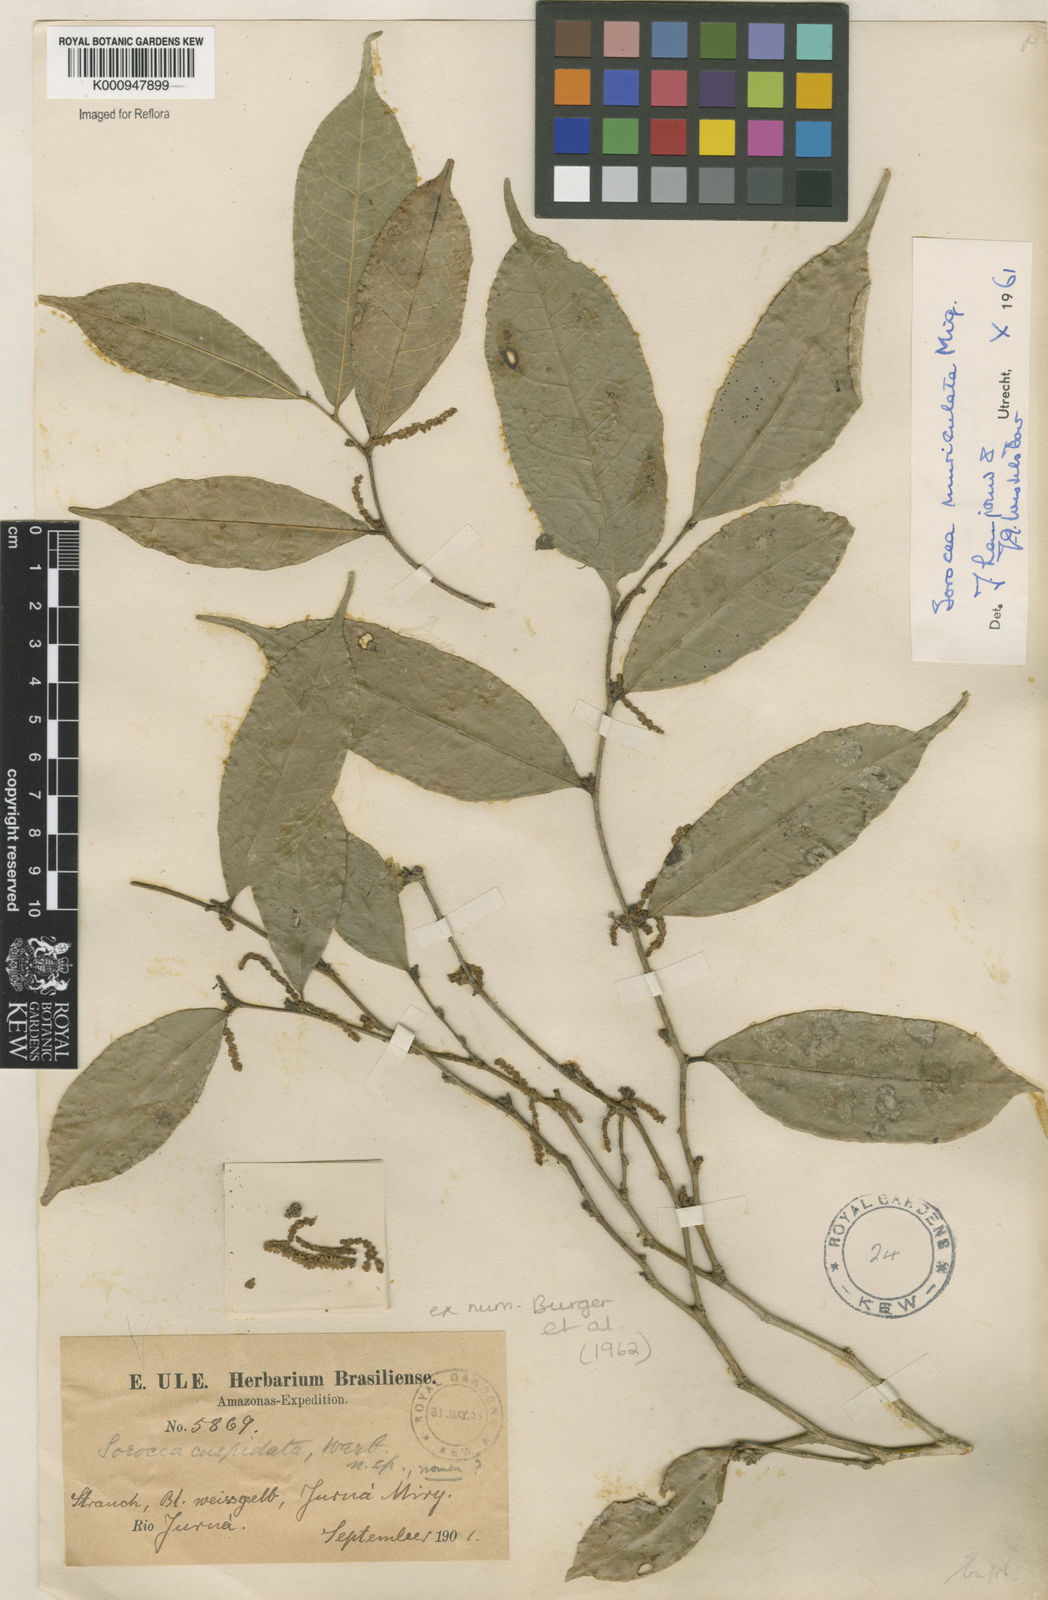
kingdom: Plantae
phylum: Tracheophyta
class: Magnoliopsida
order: Rosales
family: Moraceae
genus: Sorocea
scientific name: Sorocea muriculata
